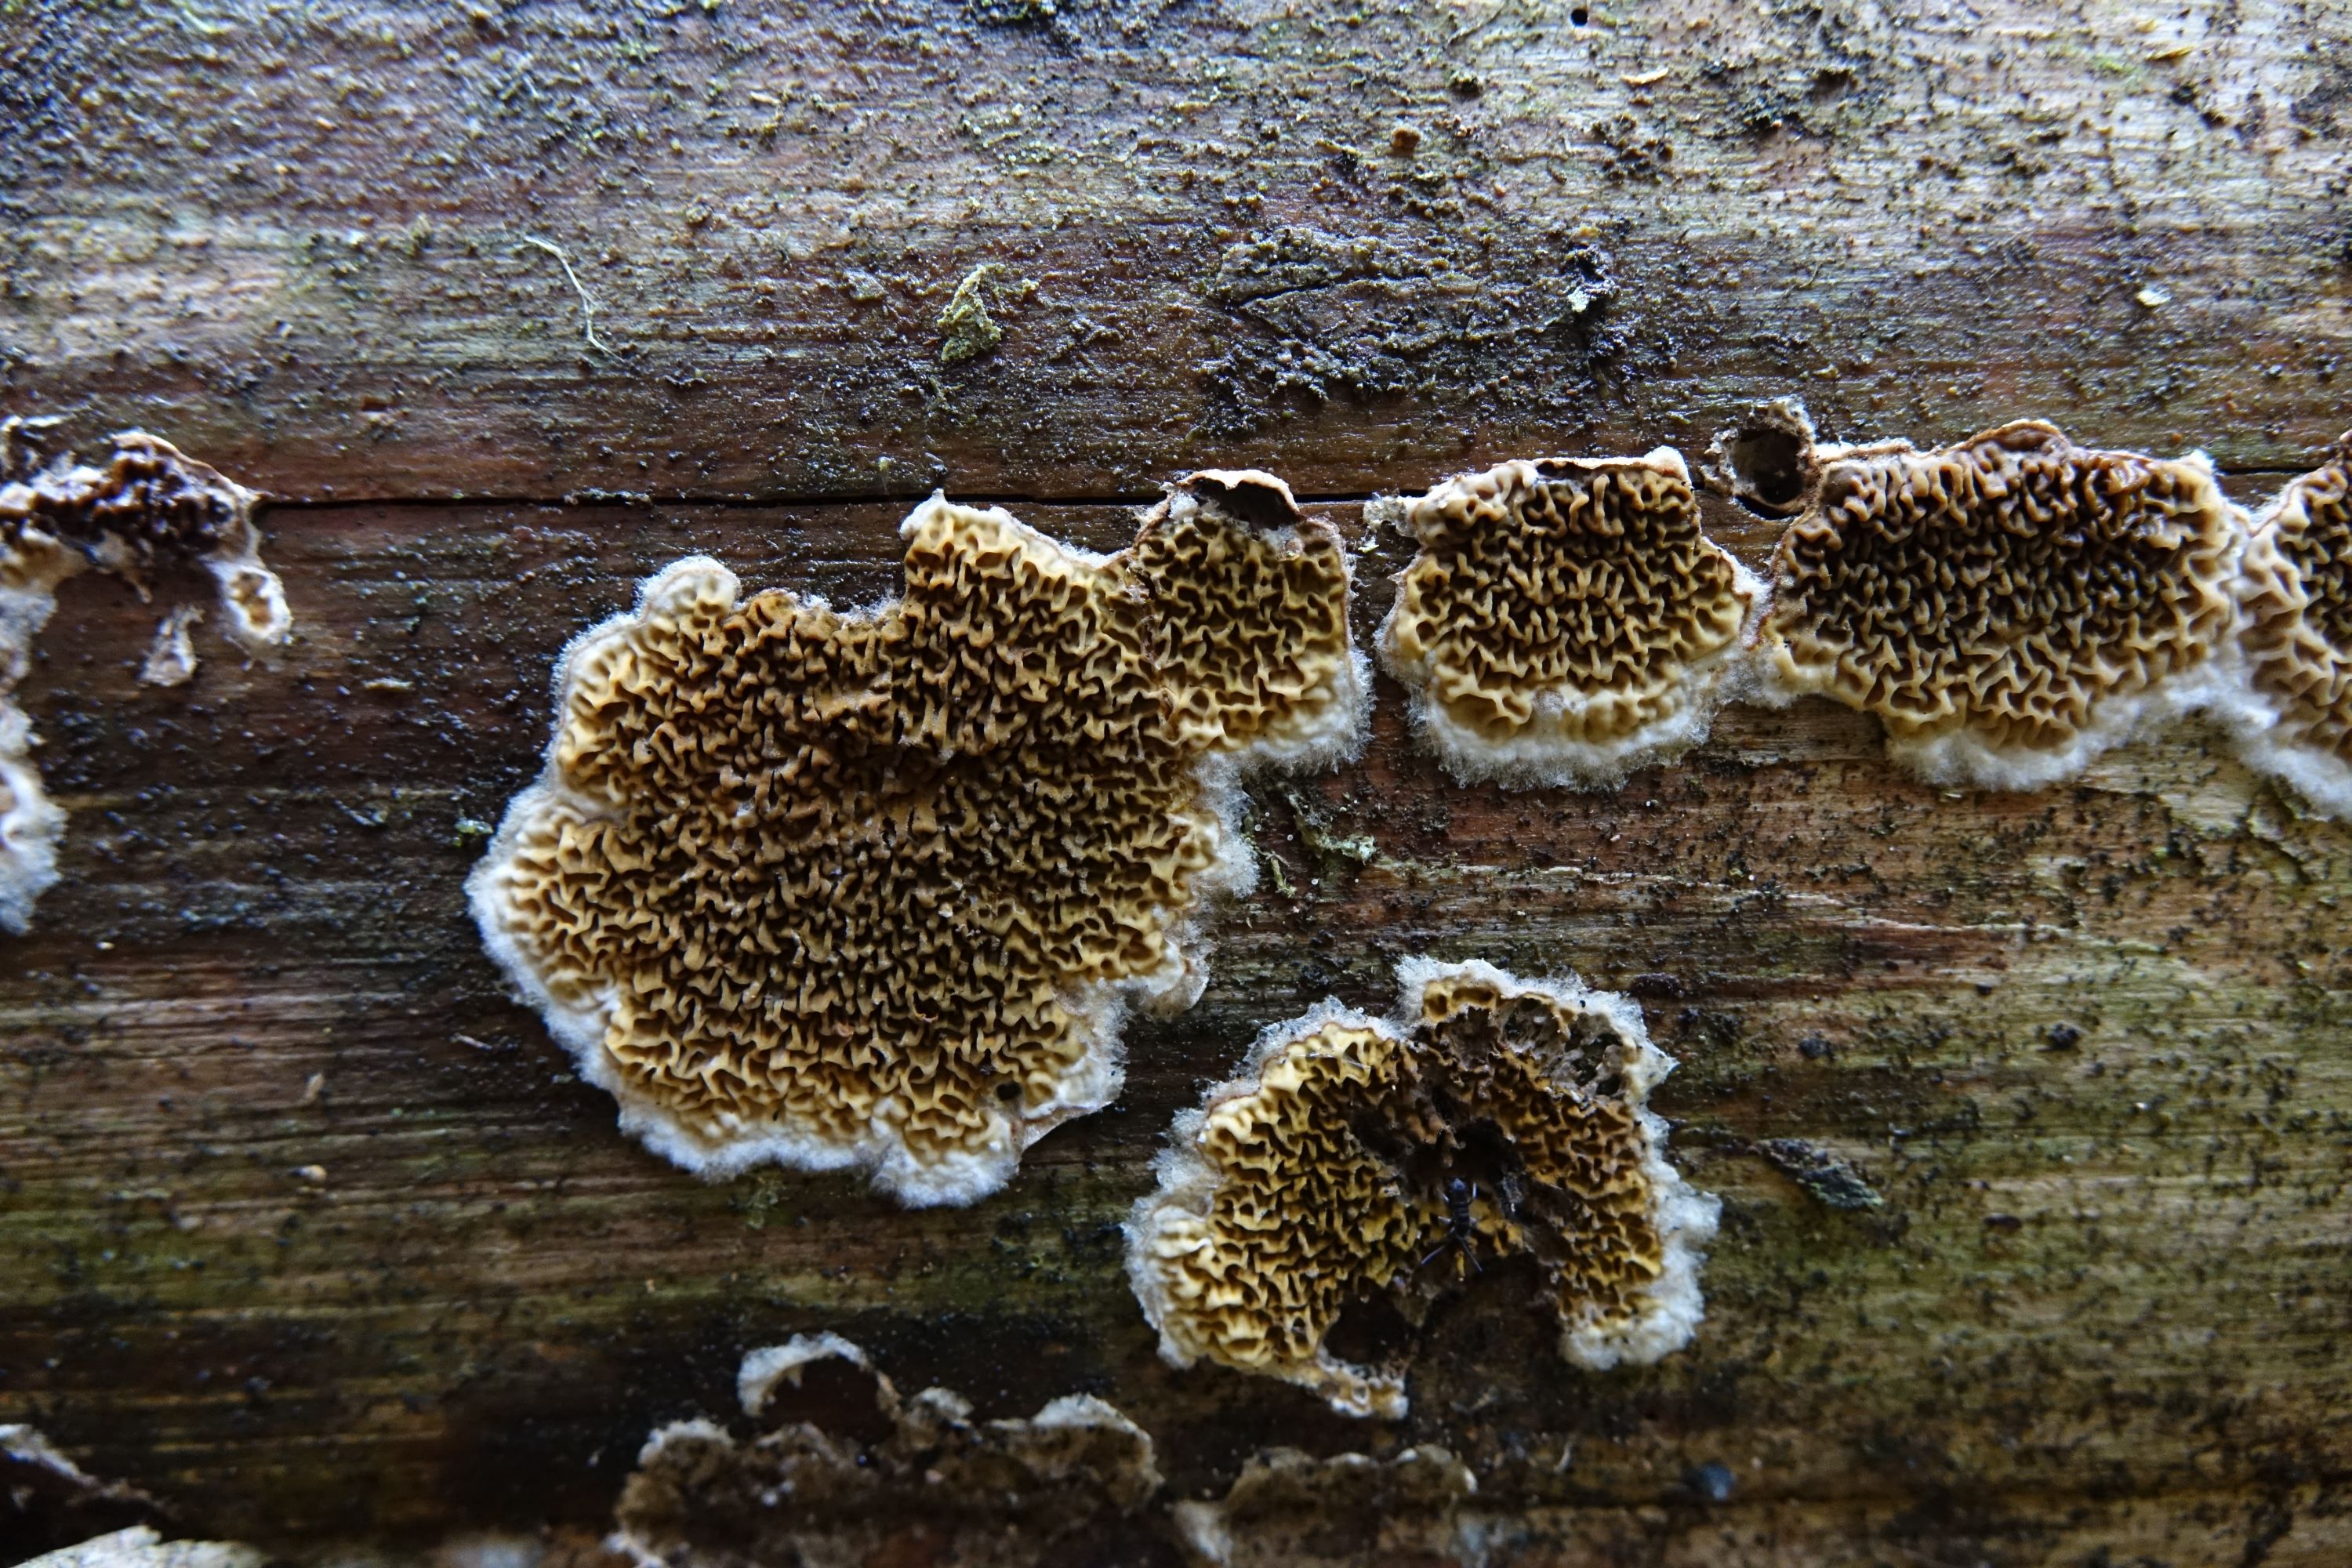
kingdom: Fungi
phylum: Basidiomycota
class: Agaricomycetes
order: Boletales
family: Serpulaceae
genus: Serpula
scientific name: Serpula himantioides
